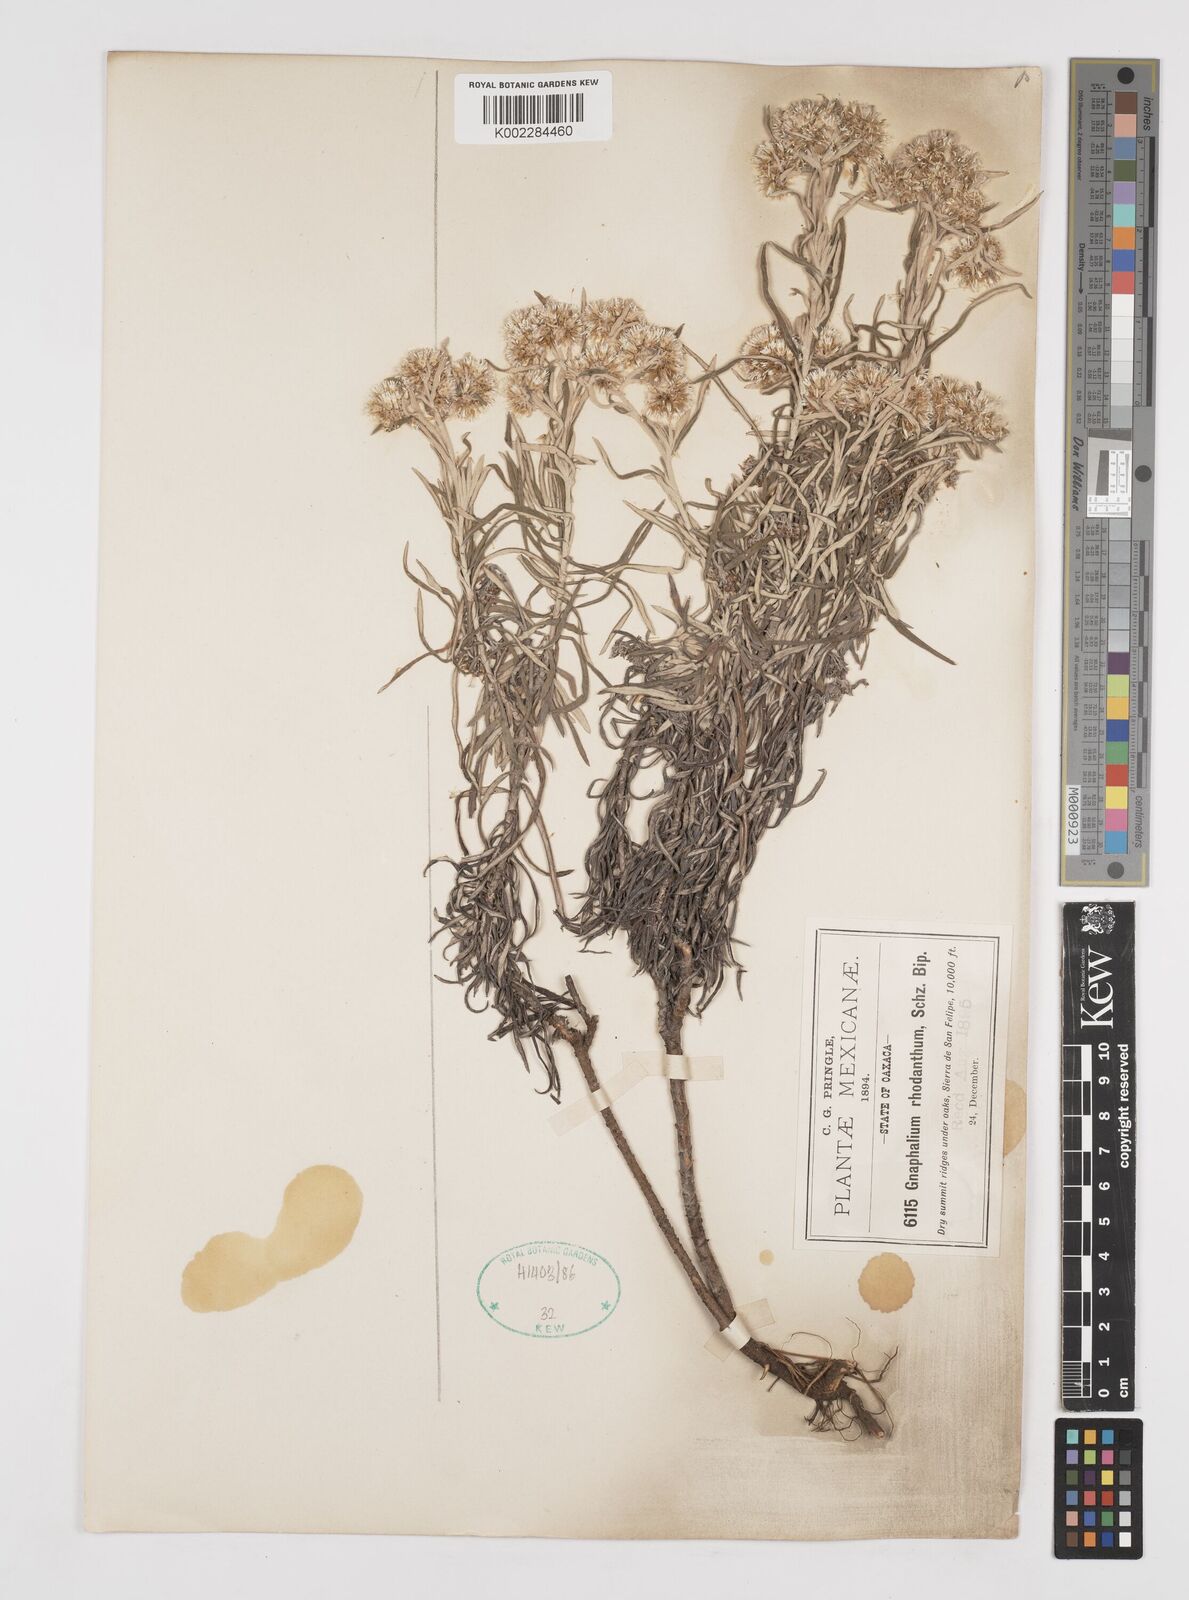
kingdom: Plantae
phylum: Tracheophyta
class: Magnoliopsida
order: Asterales
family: Asteraceae
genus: Gnaphaliothamnus
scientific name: Gnaphaliothamnus salicifolius
